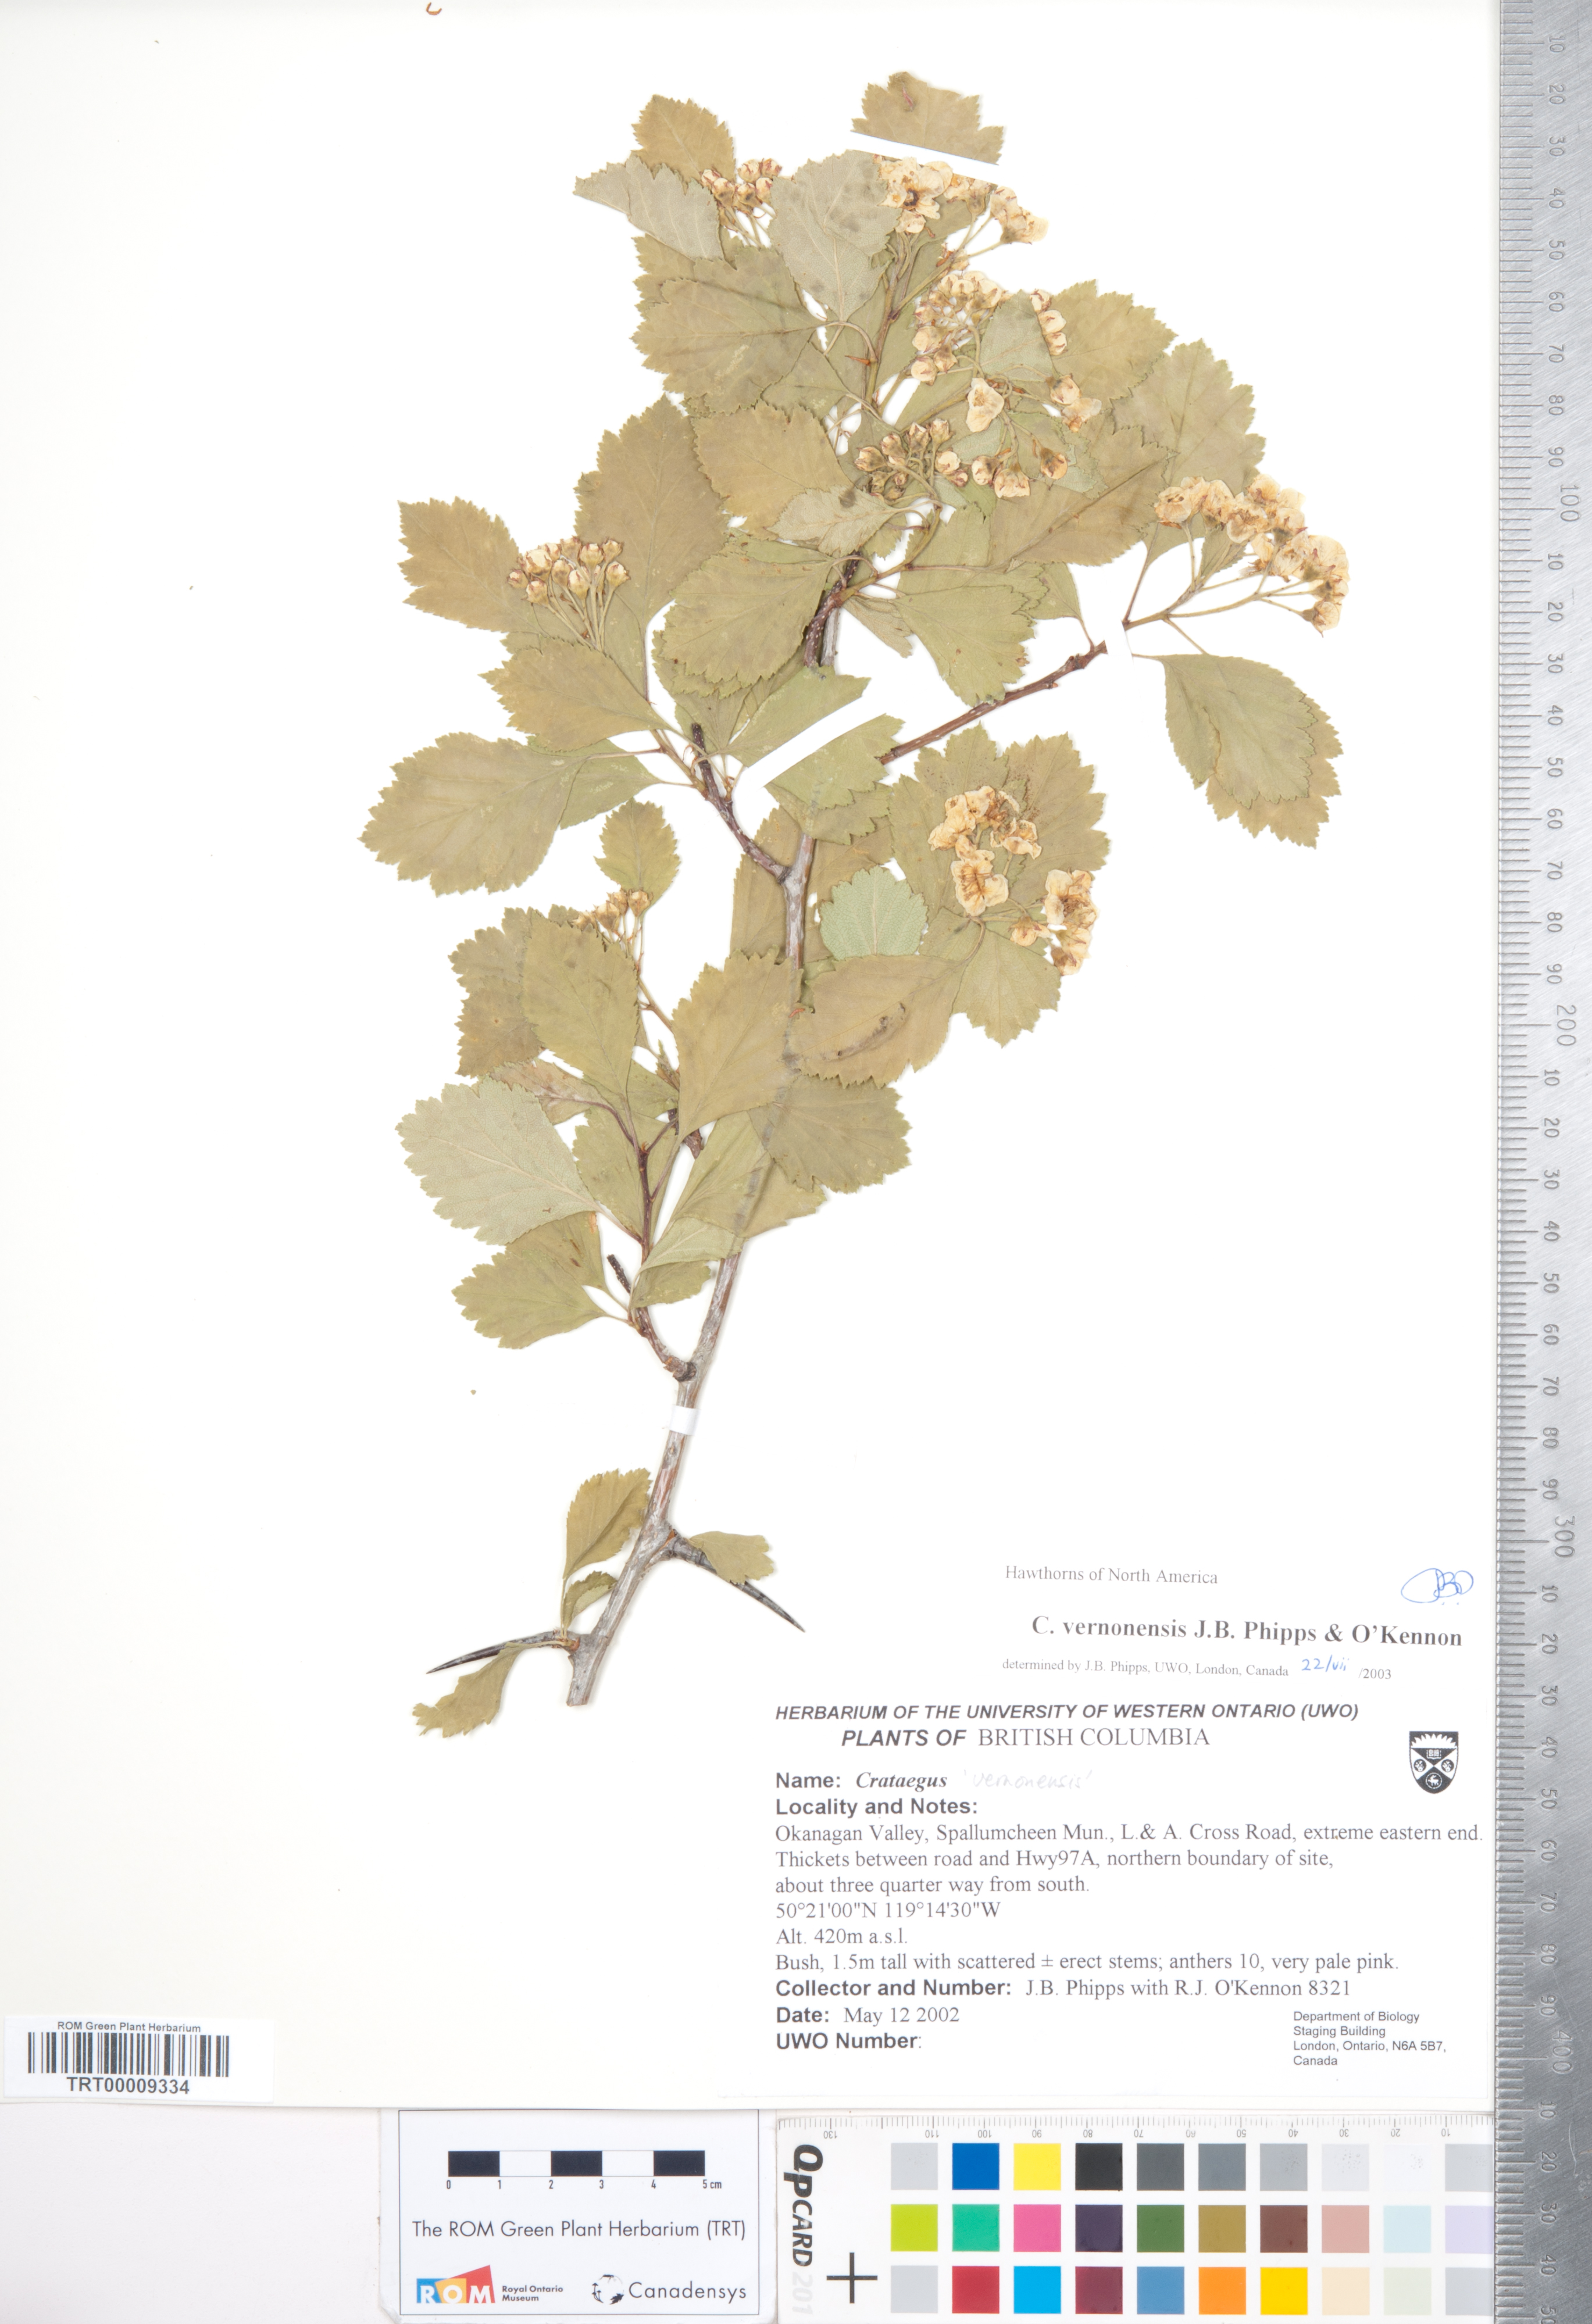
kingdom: Plantae
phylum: Tracheophyta
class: Magnoliopsida
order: Rosales
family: Rosaceae
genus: Crataegus
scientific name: Crataegus chrysocarpa
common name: Fire-berry hawthorn
